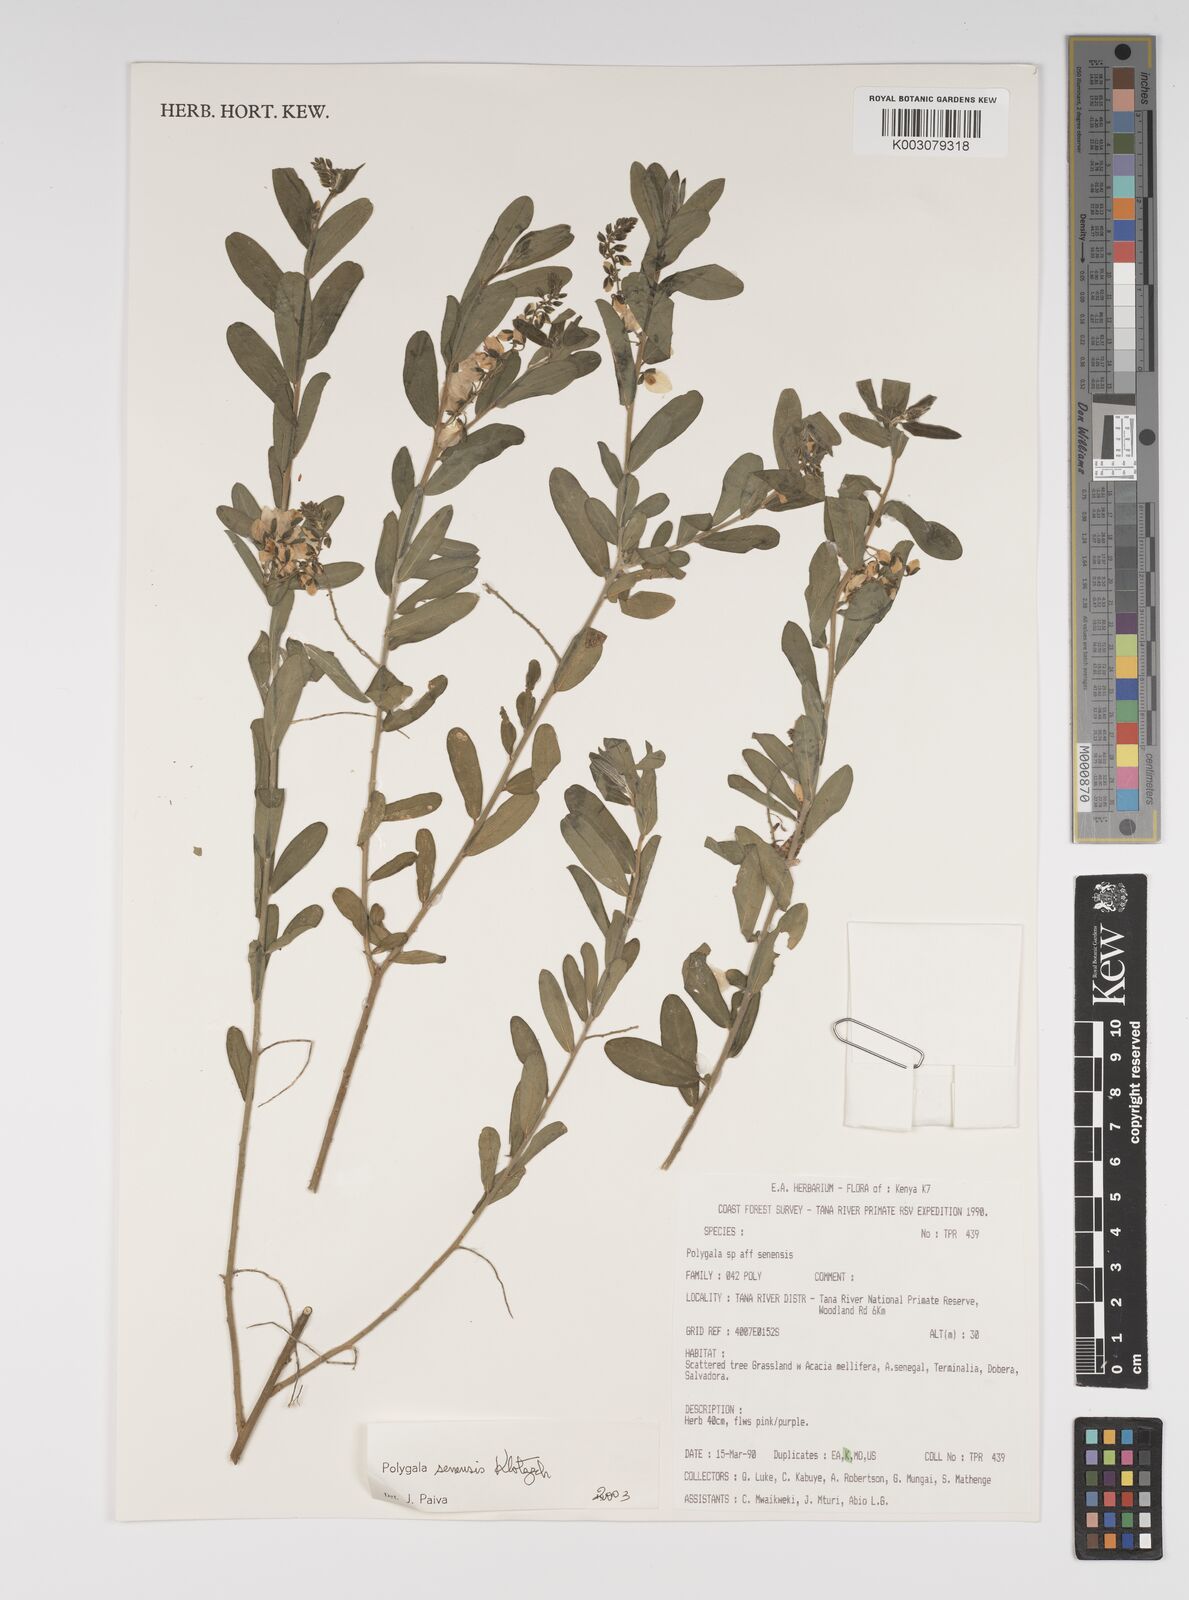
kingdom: Plantae
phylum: Tracheophyta
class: Magnoliopsida
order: Fabales
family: Polygalaceae
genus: Polygala
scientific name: Polygala senensis
